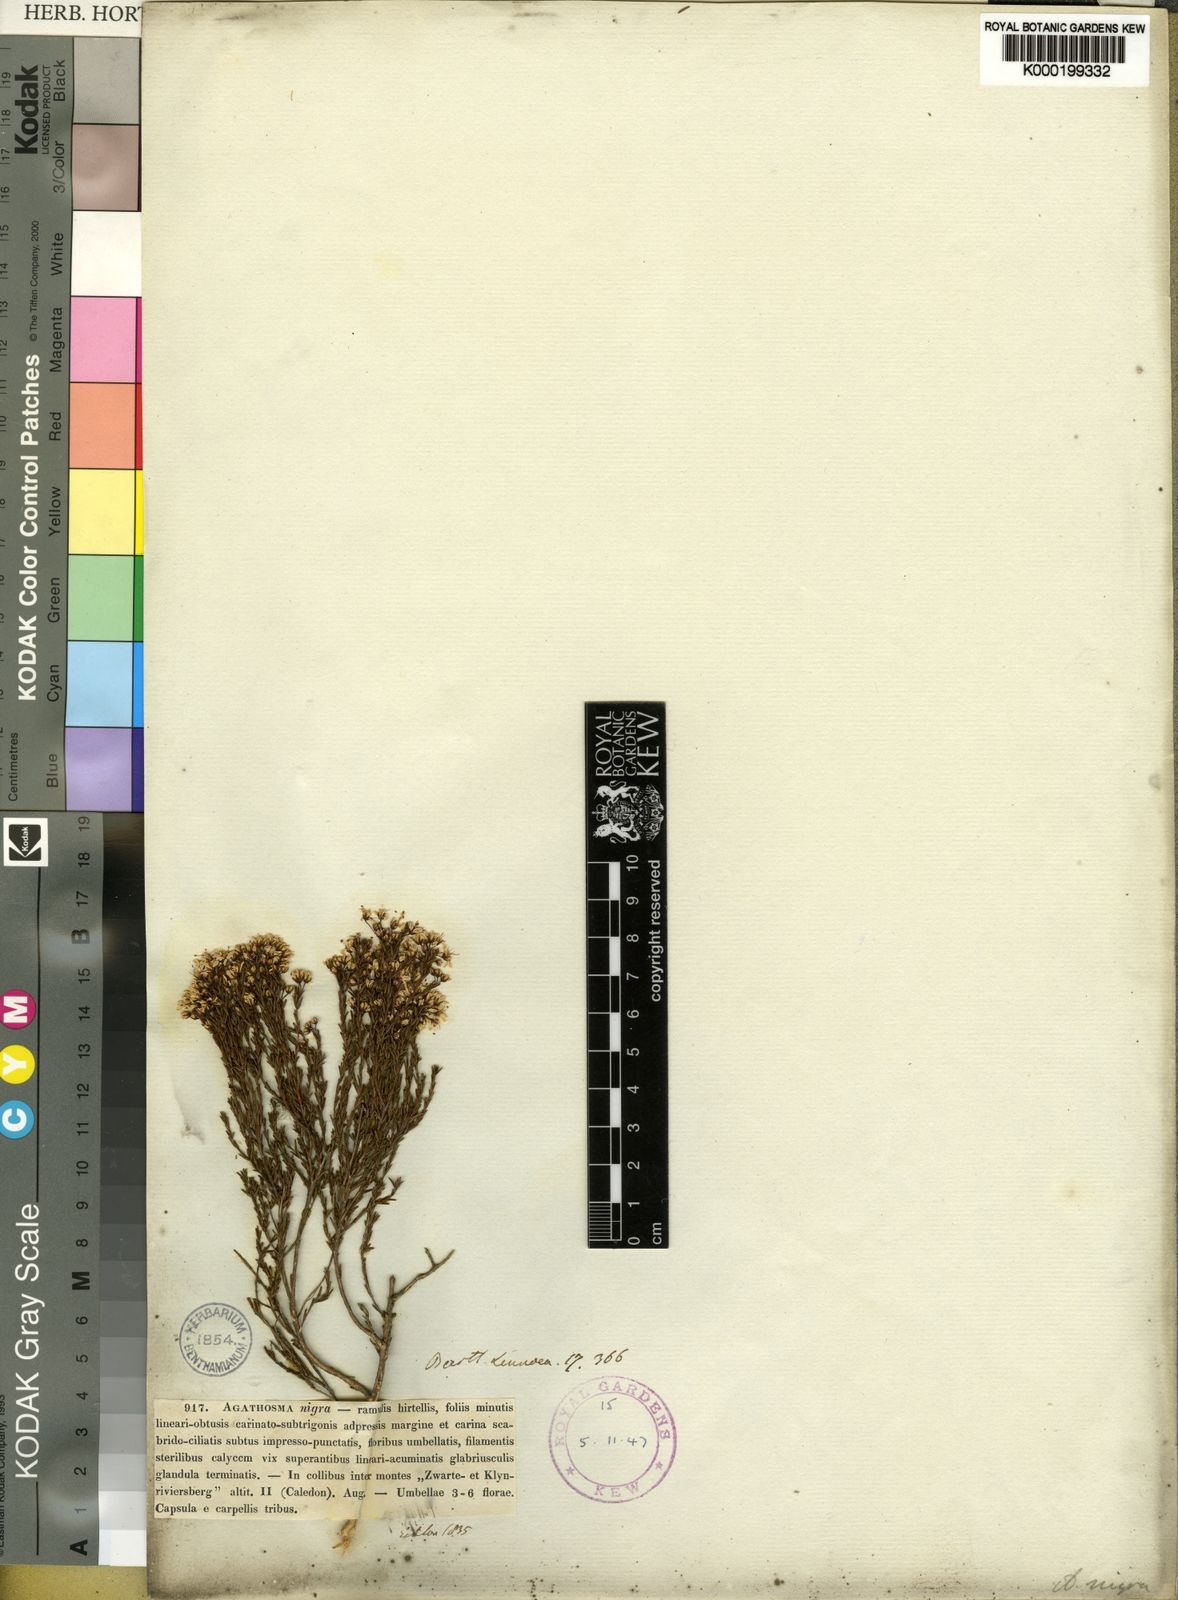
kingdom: Plantae
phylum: Tracheophyta
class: Magnoliopsida
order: Sapindales
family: Rutaceae
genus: Agathosma
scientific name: Agathosma capensis
